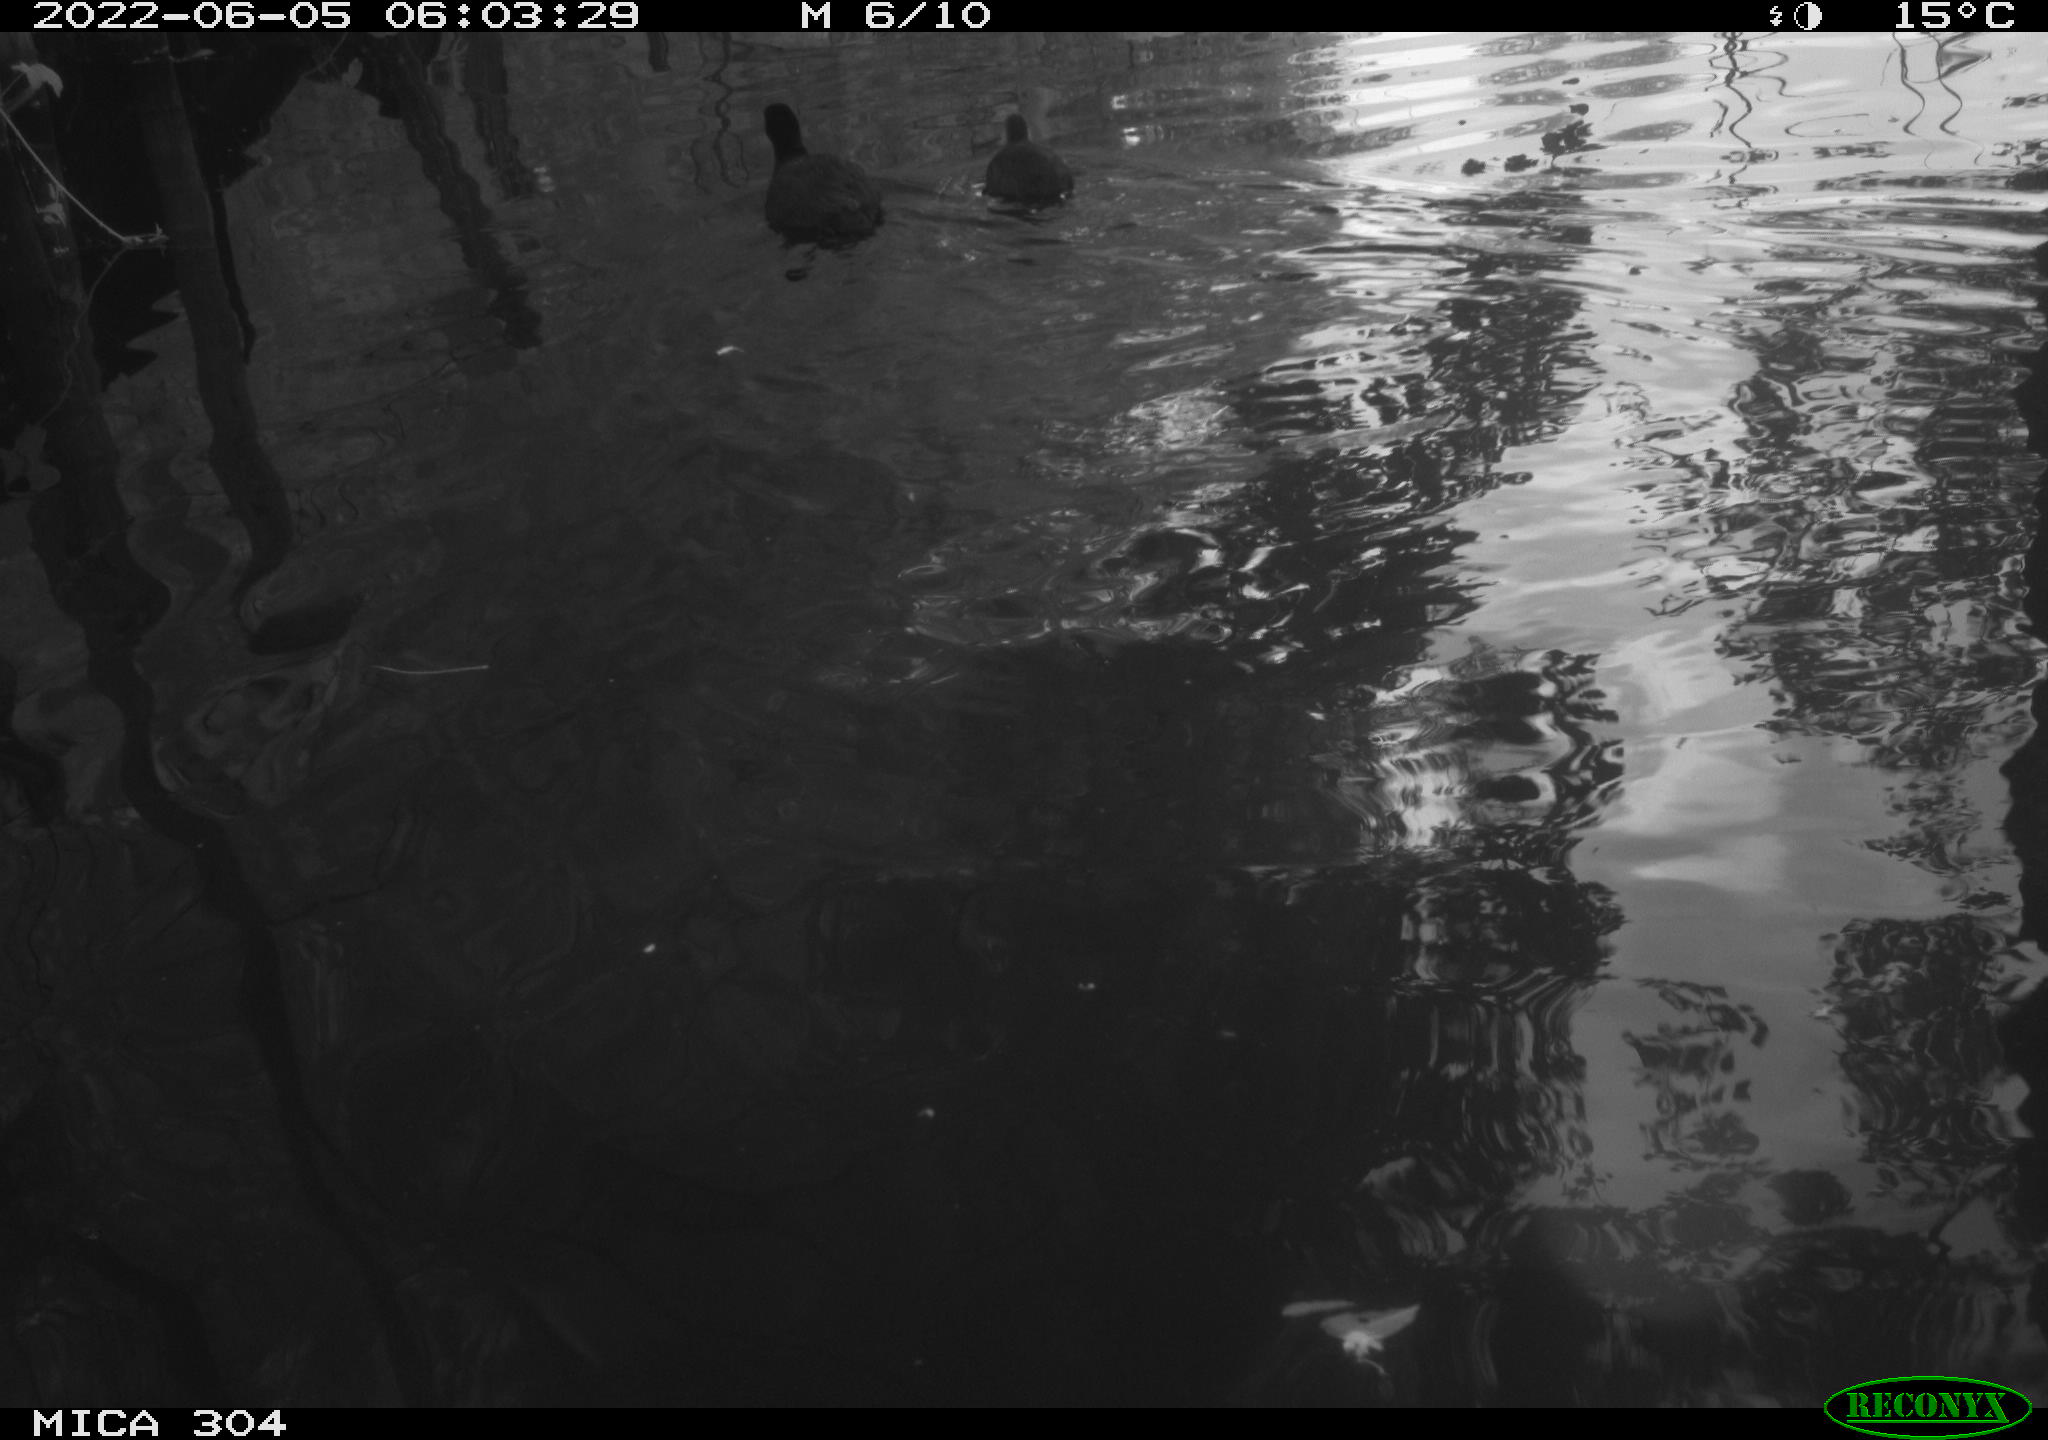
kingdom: Animalia
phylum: Chordata
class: Aves
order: Gruiformes
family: Rallidae
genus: Fulica
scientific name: Fulica atra
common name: Eurasian coot
